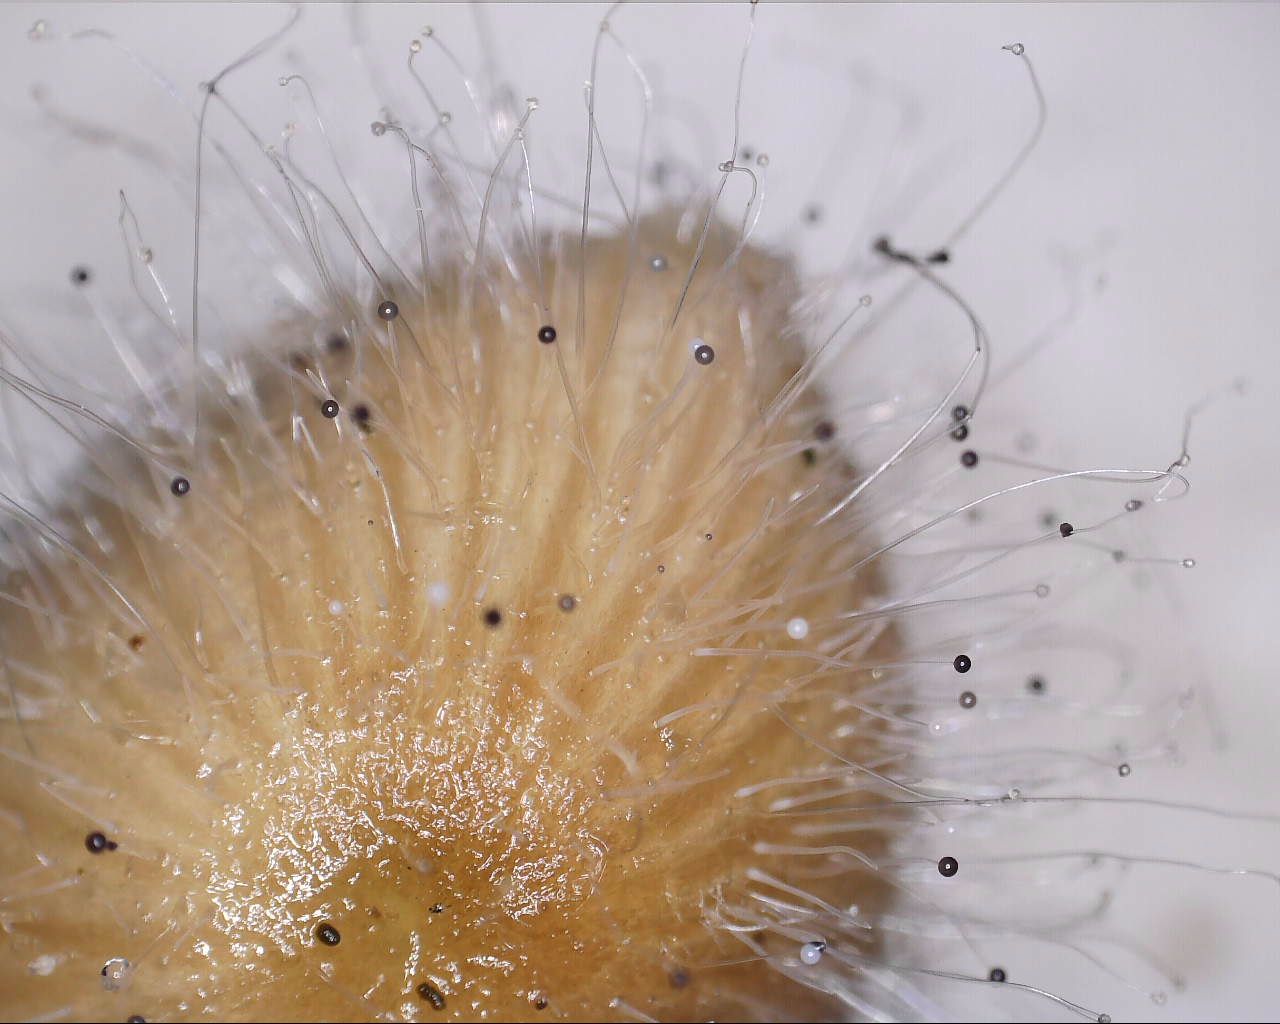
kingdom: Fungi
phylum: Mucoromycota
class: Mucoromycetes
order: Mucorales
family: Phycomycetaceae
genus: Spinellus
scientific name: Spinellus fusiger
